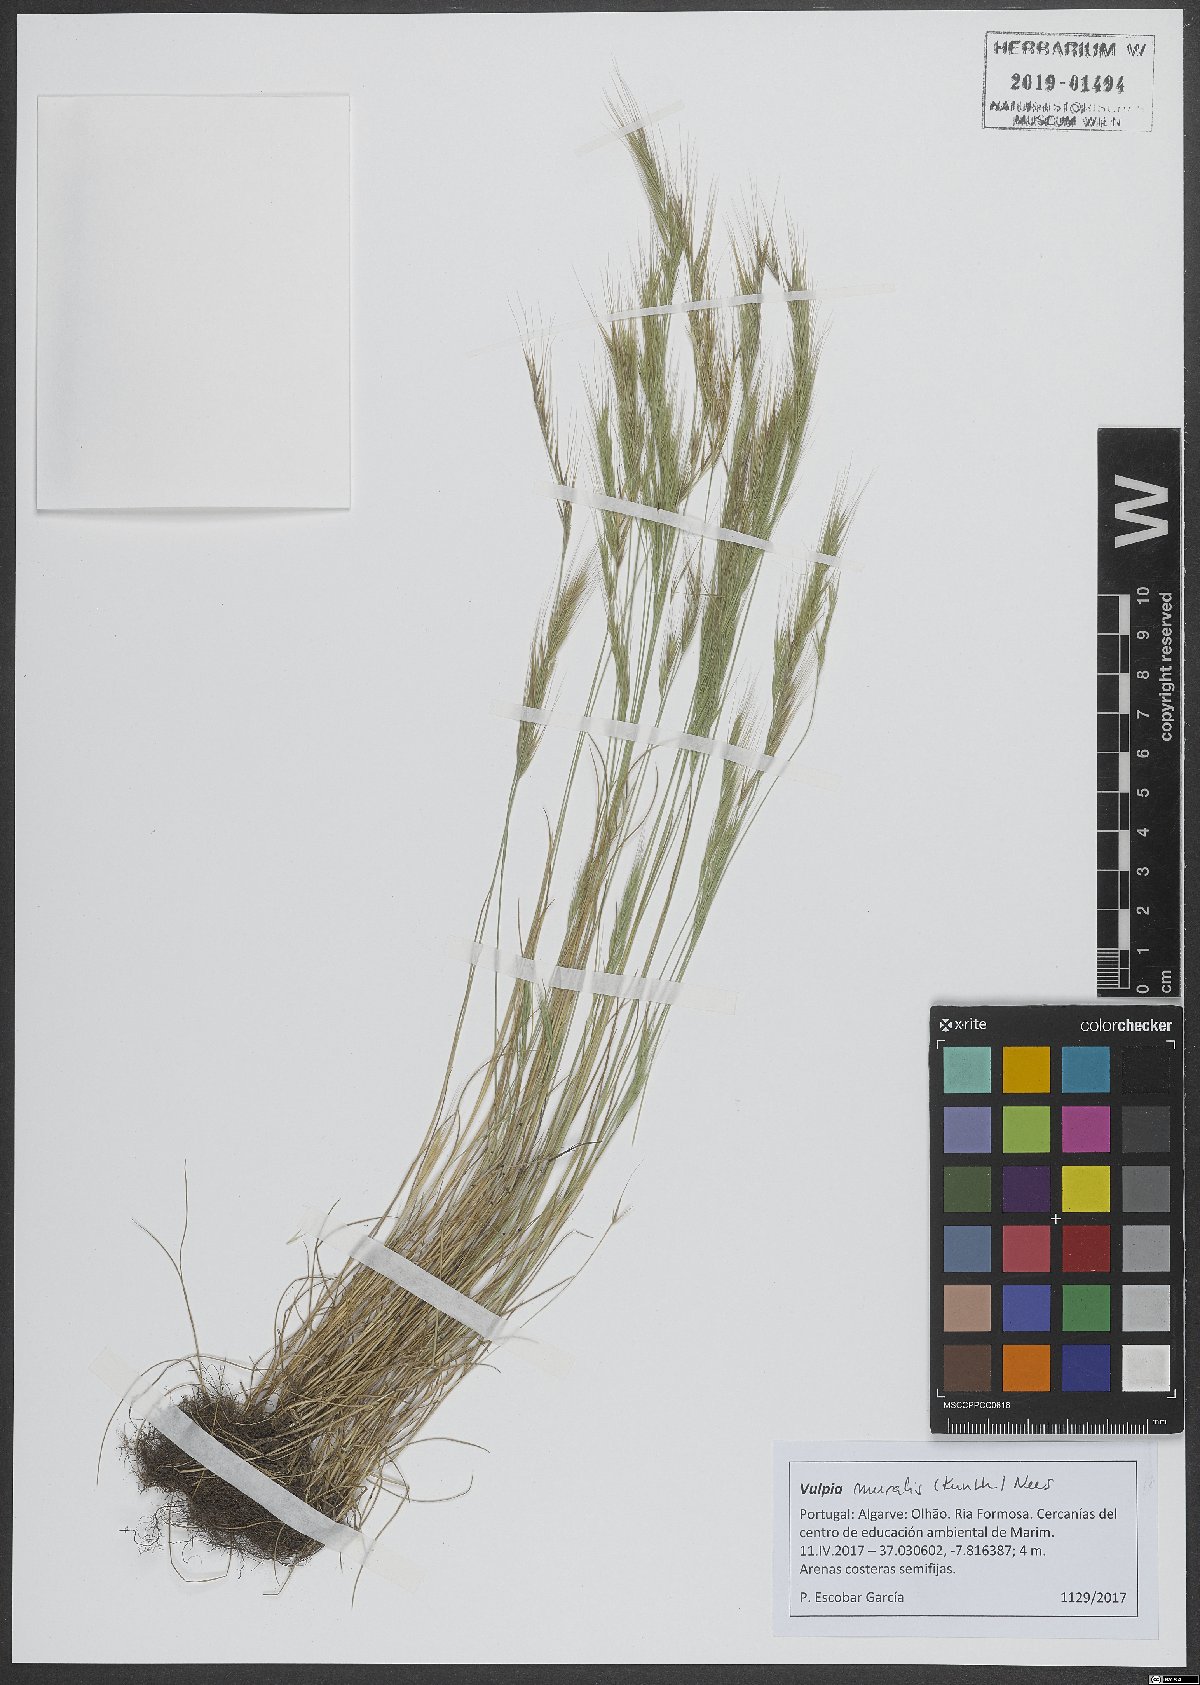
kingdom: Plantae
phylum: Tracheophyta
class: Liliopsida
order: Poales
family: Poaceae
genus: Festuca
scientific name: Festuca muralis
